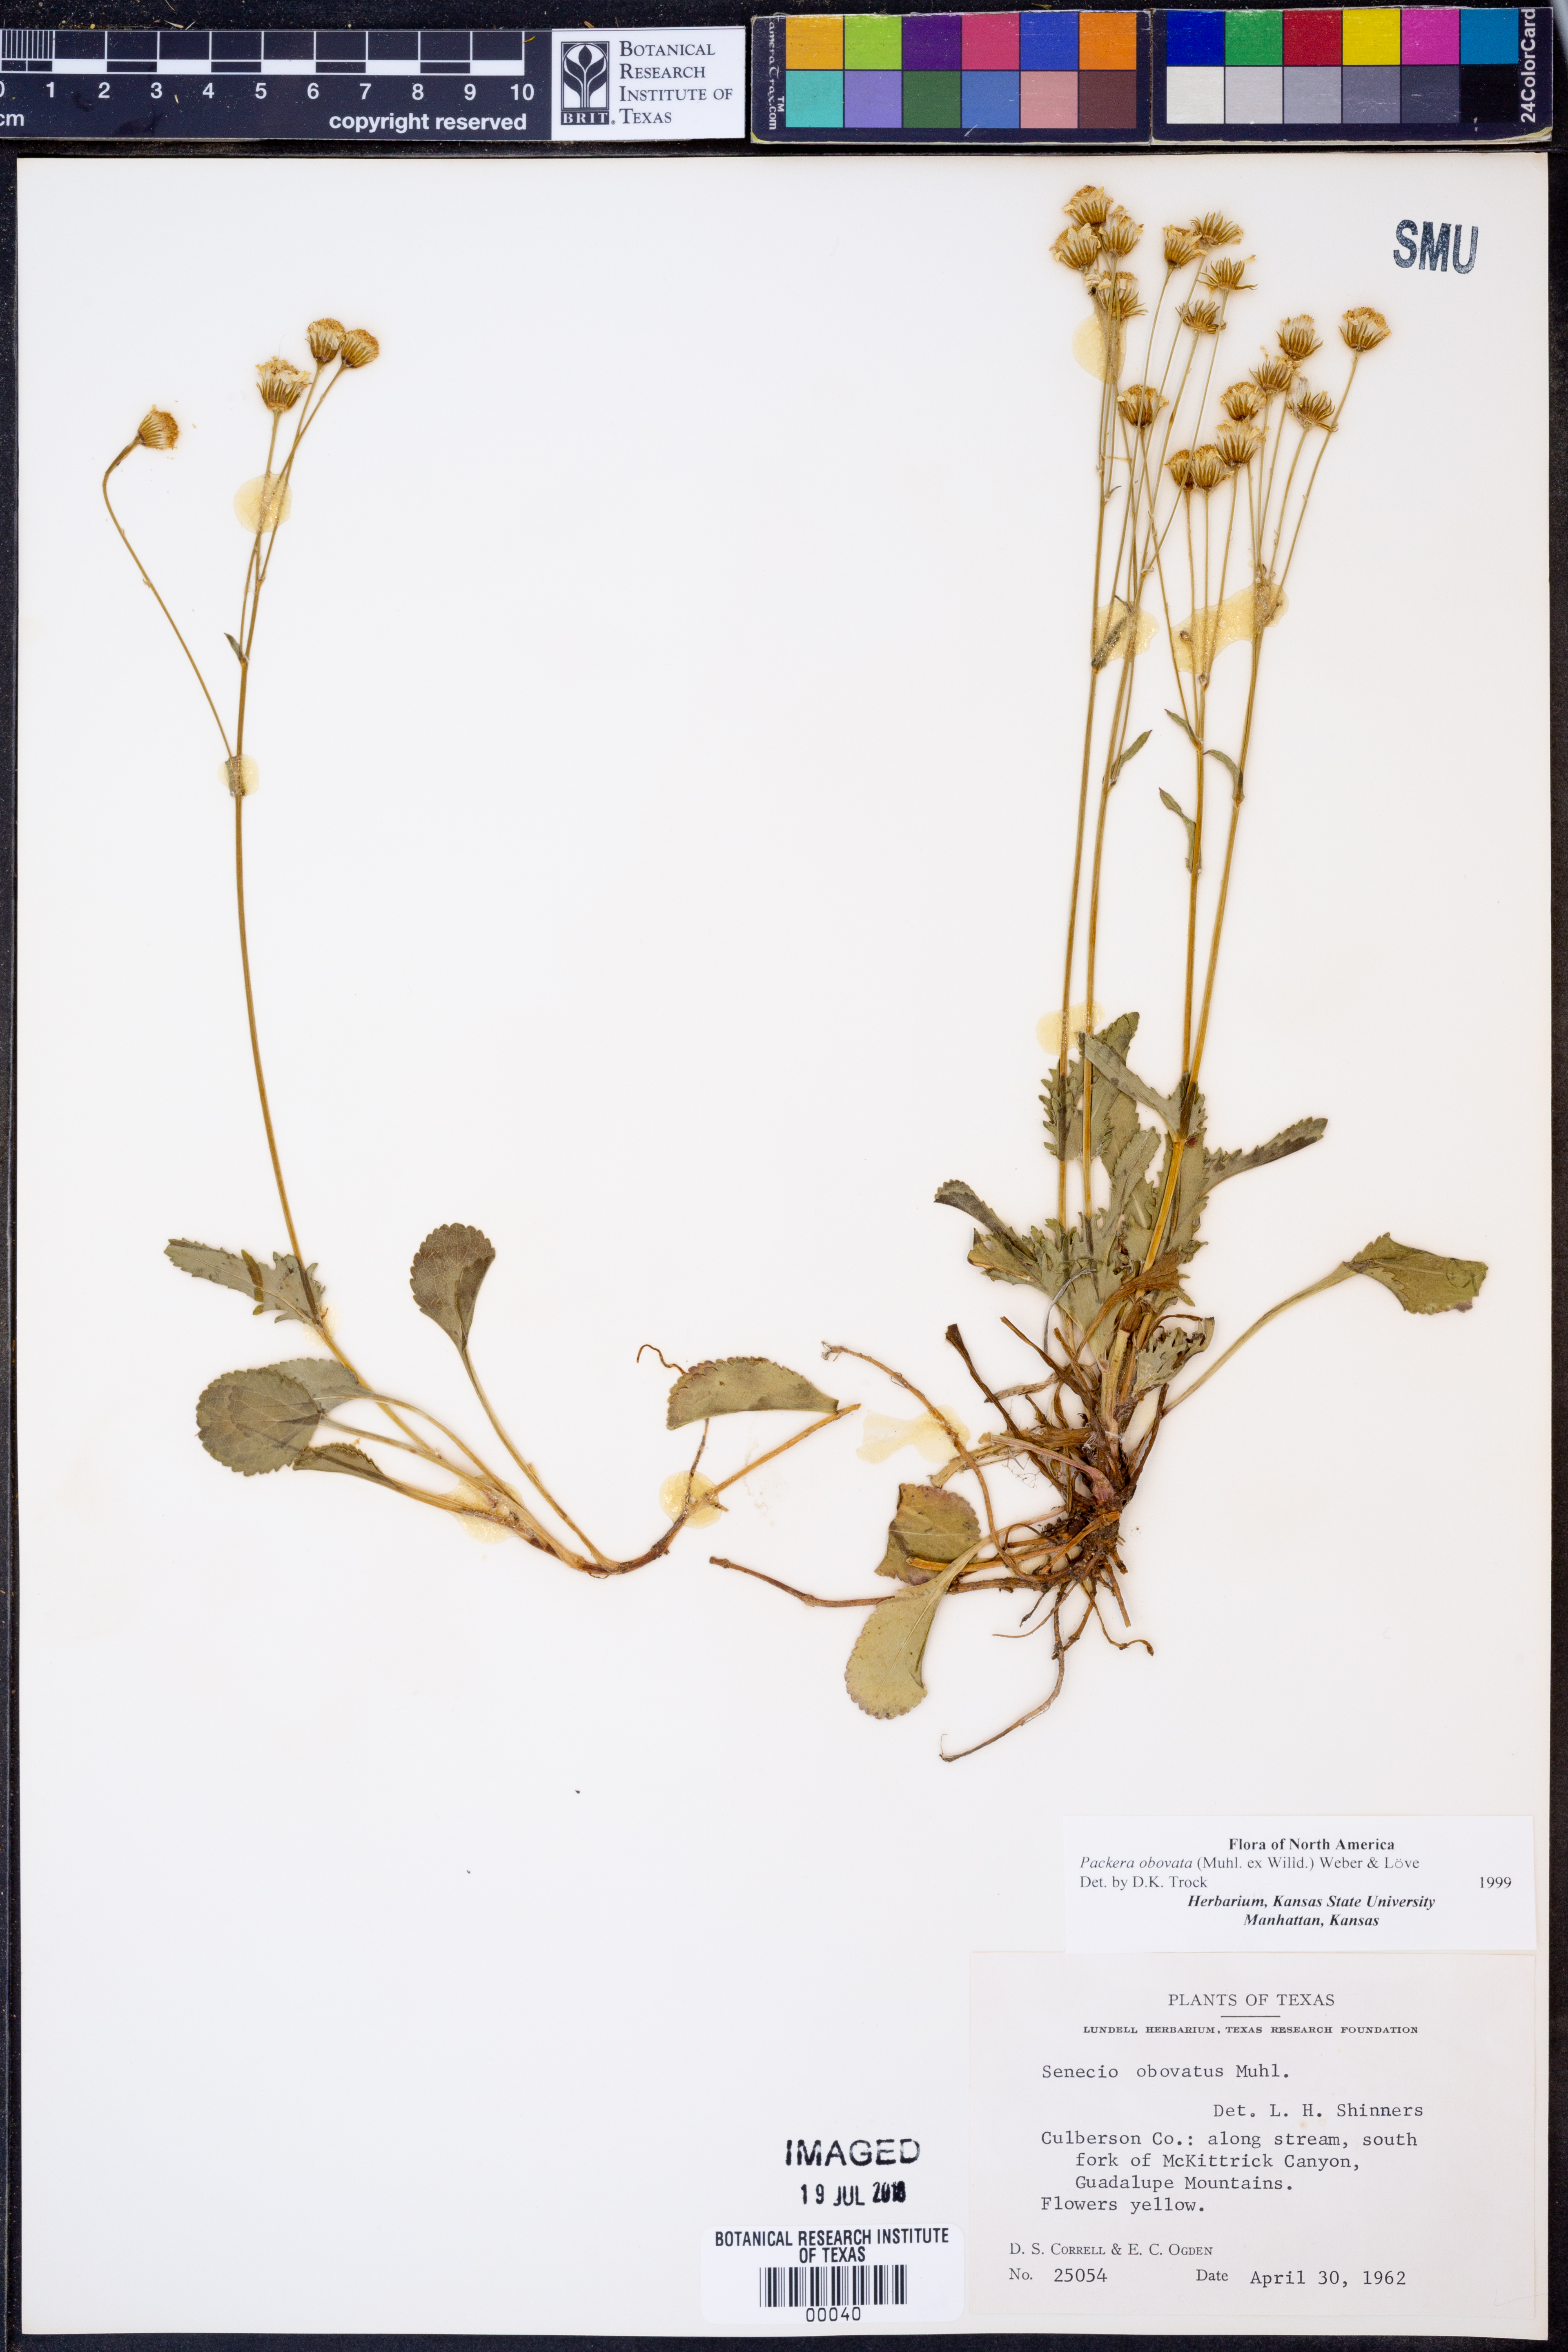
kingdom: Plantae
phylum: Tracheophyta
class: Magnoliopsida
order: Asterales
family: Asteraceae
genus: Packera
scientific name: Packera obovata
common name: Round-leaf ragwort
